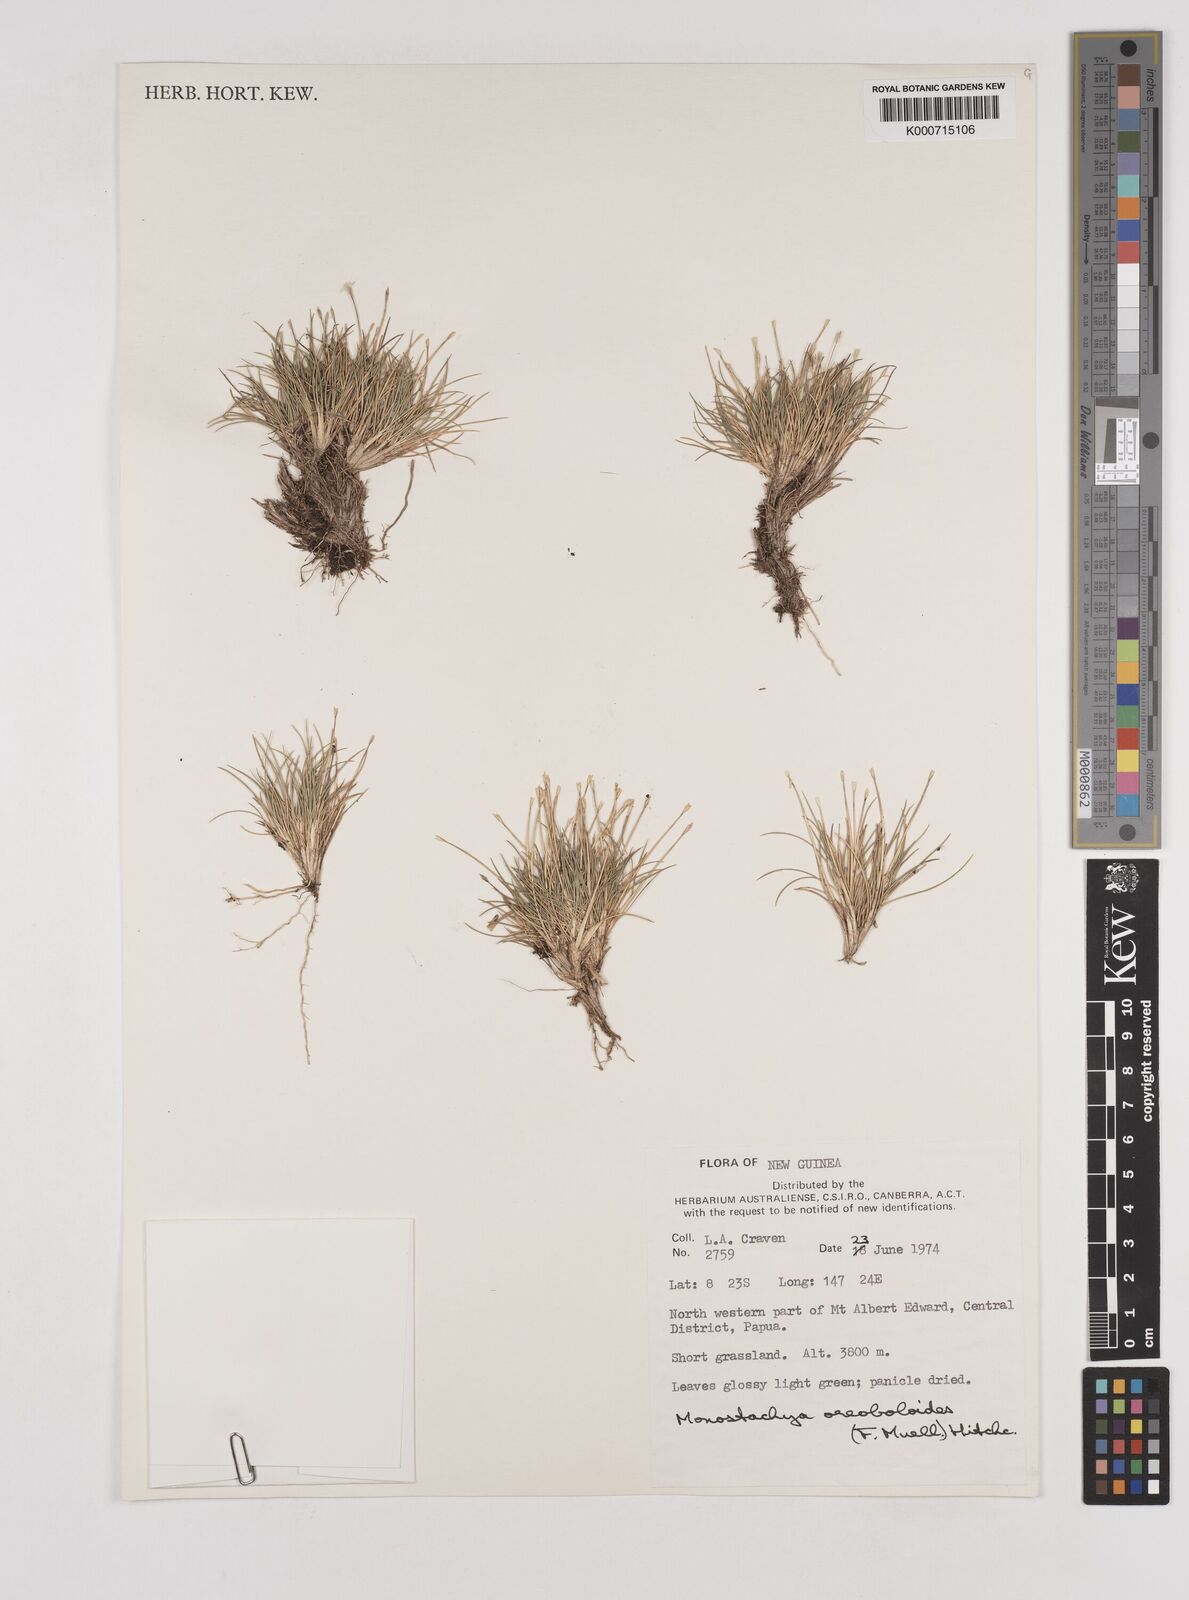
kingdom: Plantae
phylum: Tracheophyta
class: Liliopsida
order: Poales
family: Poaceae
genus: Rytidosperma
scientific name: Rytidosperma oreoboloides
